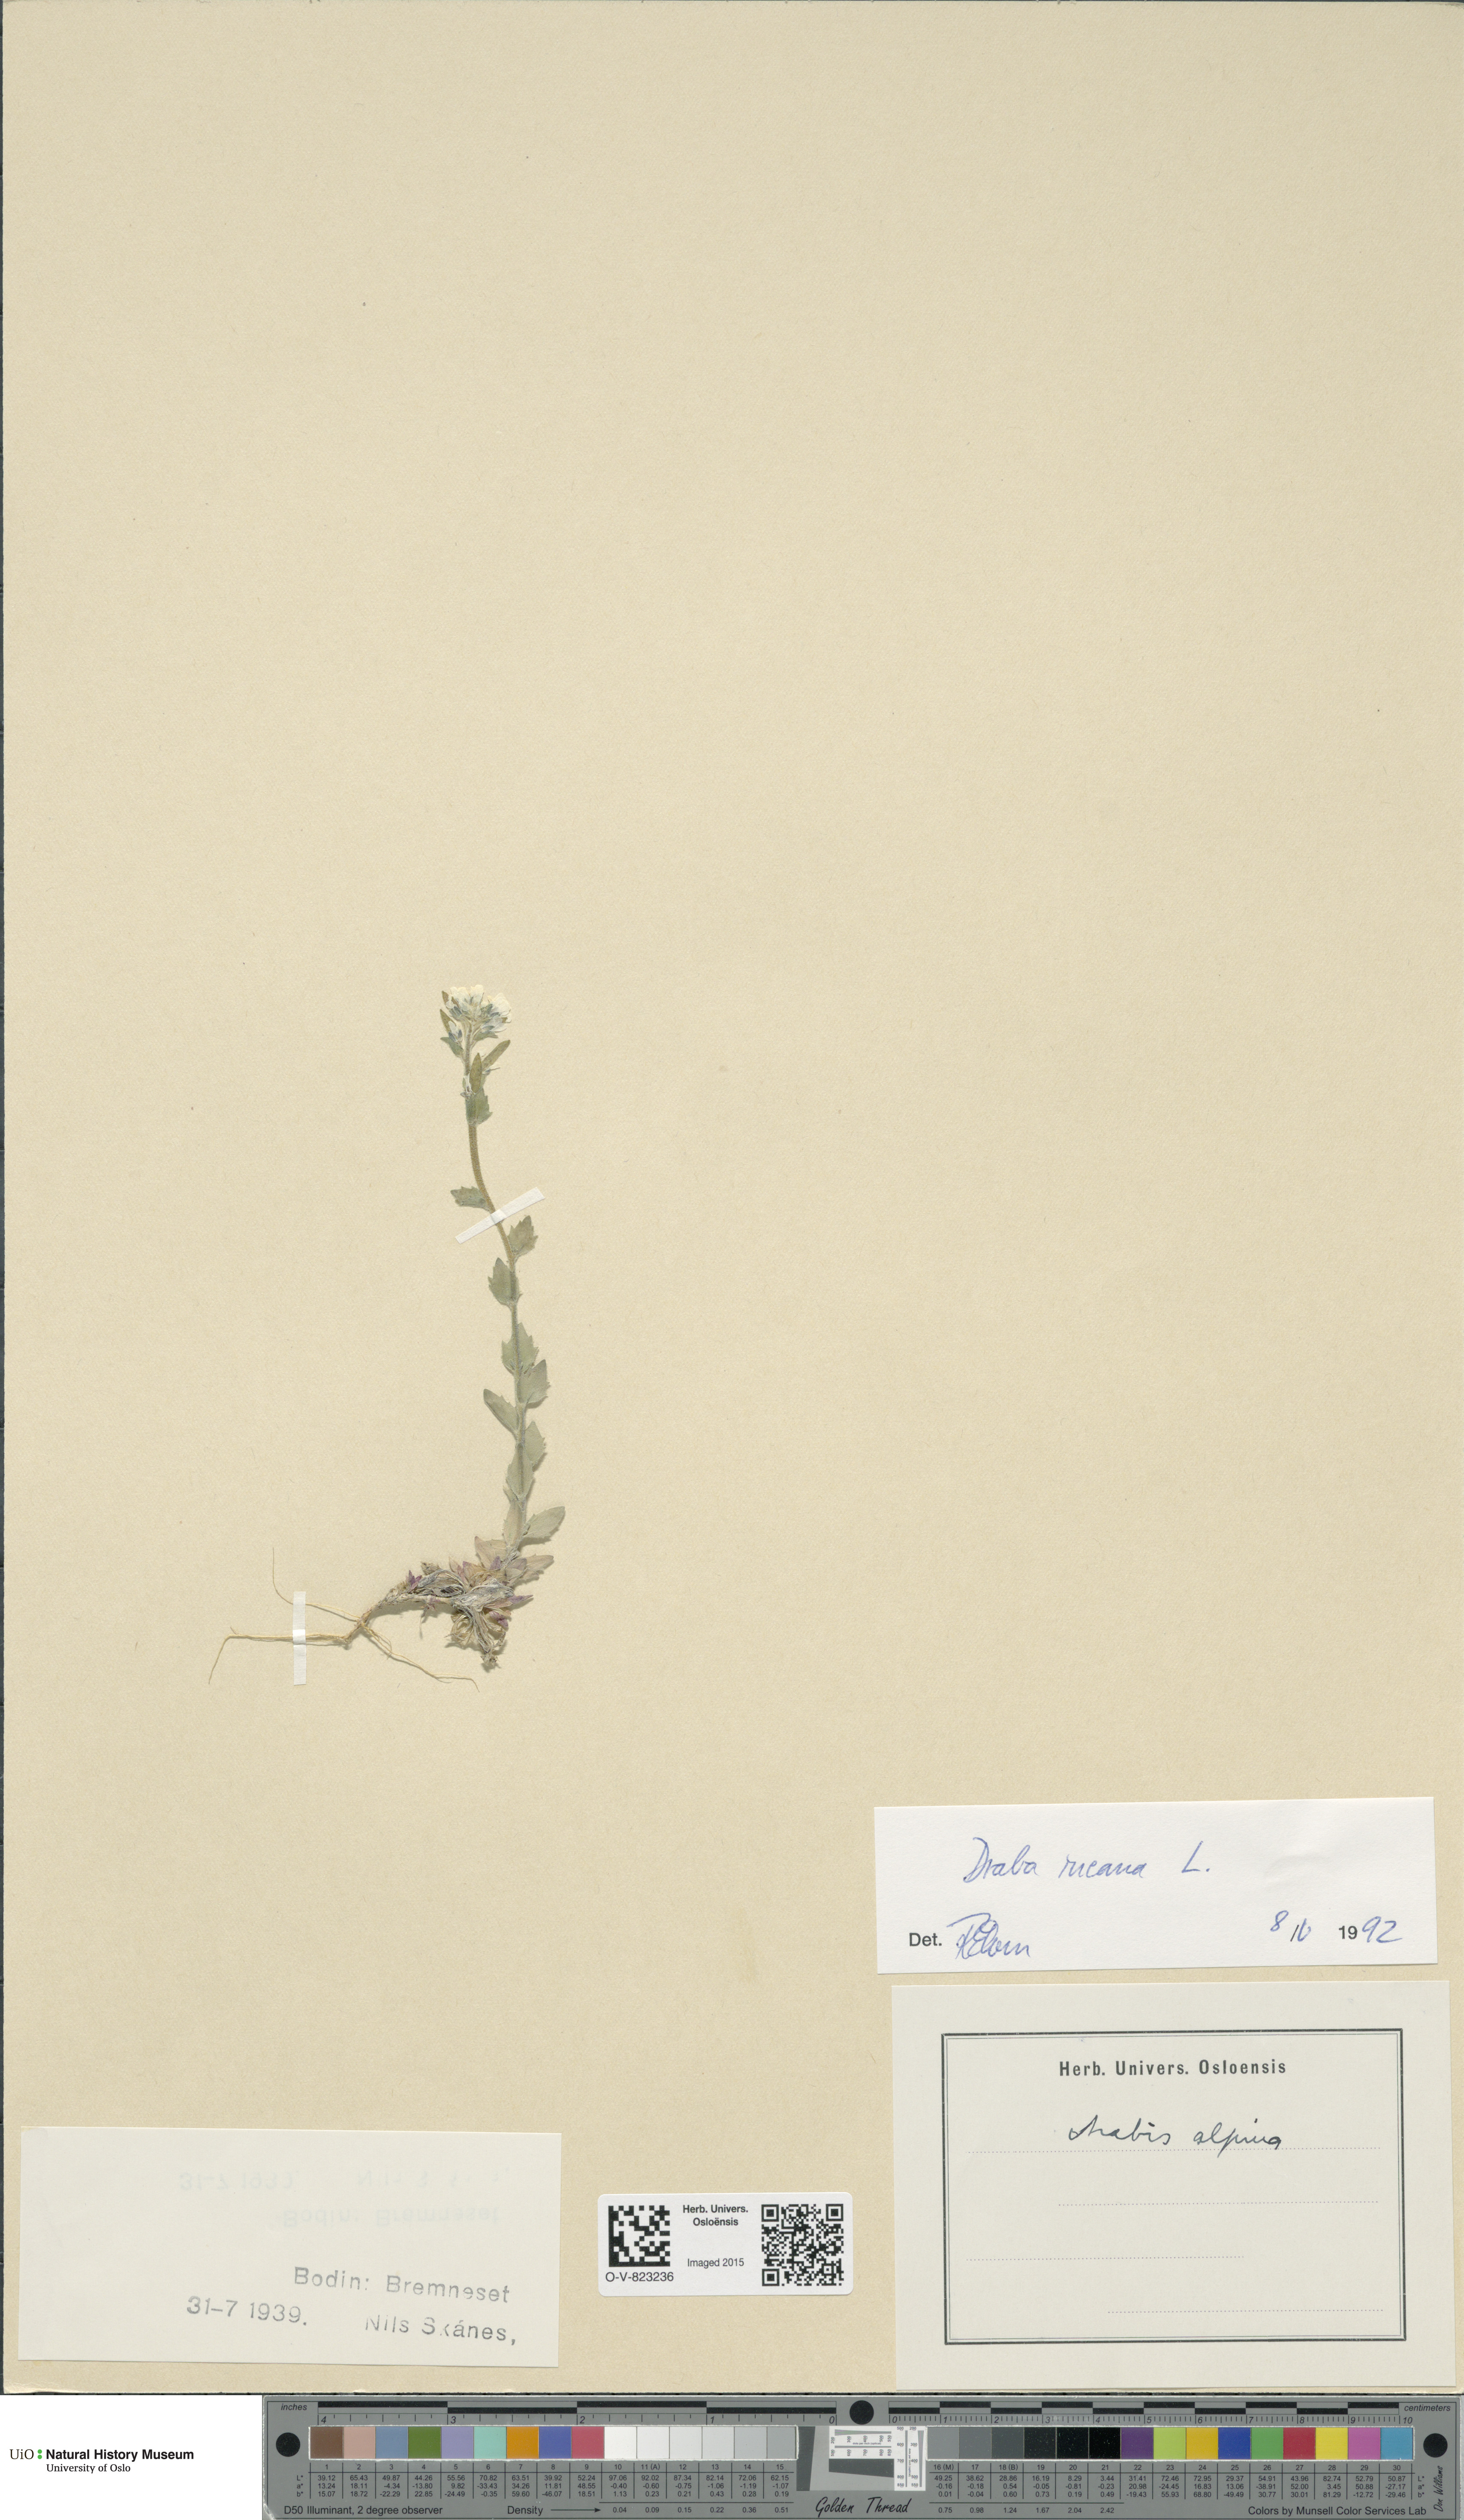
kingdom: Plantae
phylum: Tracheophyta
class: Magnoliopsida
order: Brassicales
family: Brassicaceae
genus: Draba
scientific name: Draba incana
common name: Hoary whitlow-grass
